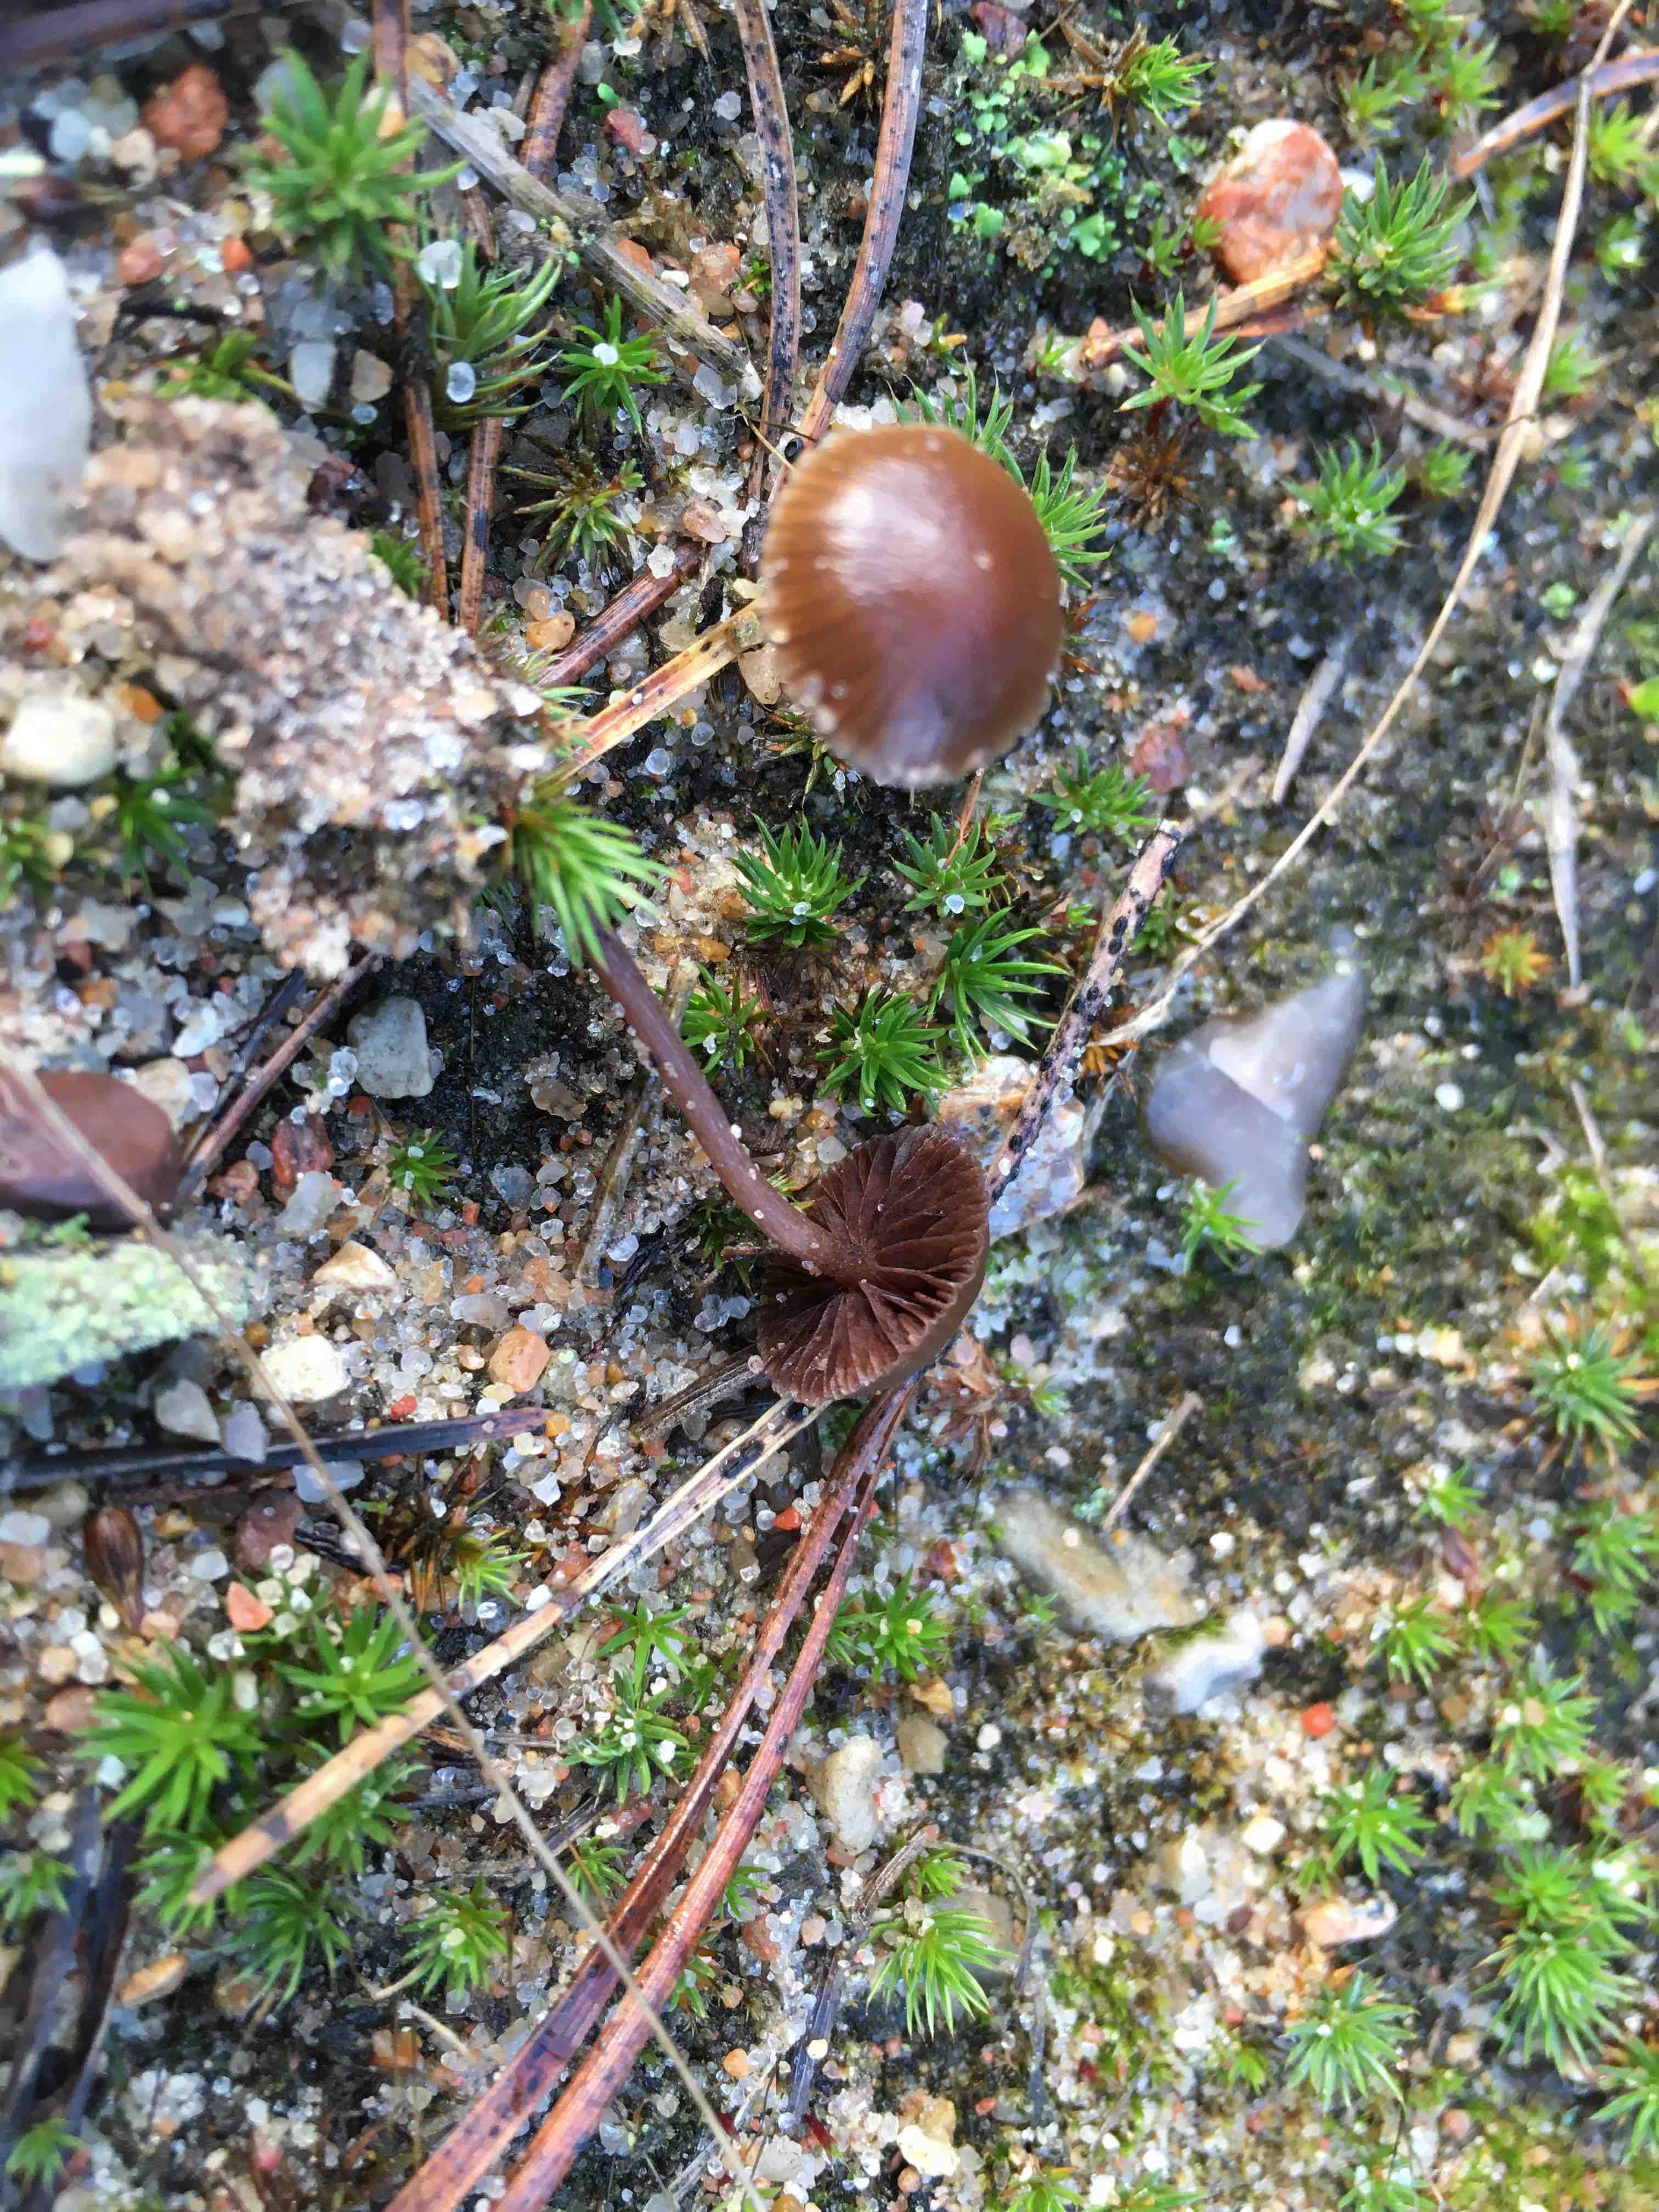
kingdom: Fungi
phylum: Basidiomycota
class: Agaricomycetes
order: Agaricales
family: Strophariaceae
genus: Deconica
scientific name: Deconica montana
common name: rødbrun stråhat
